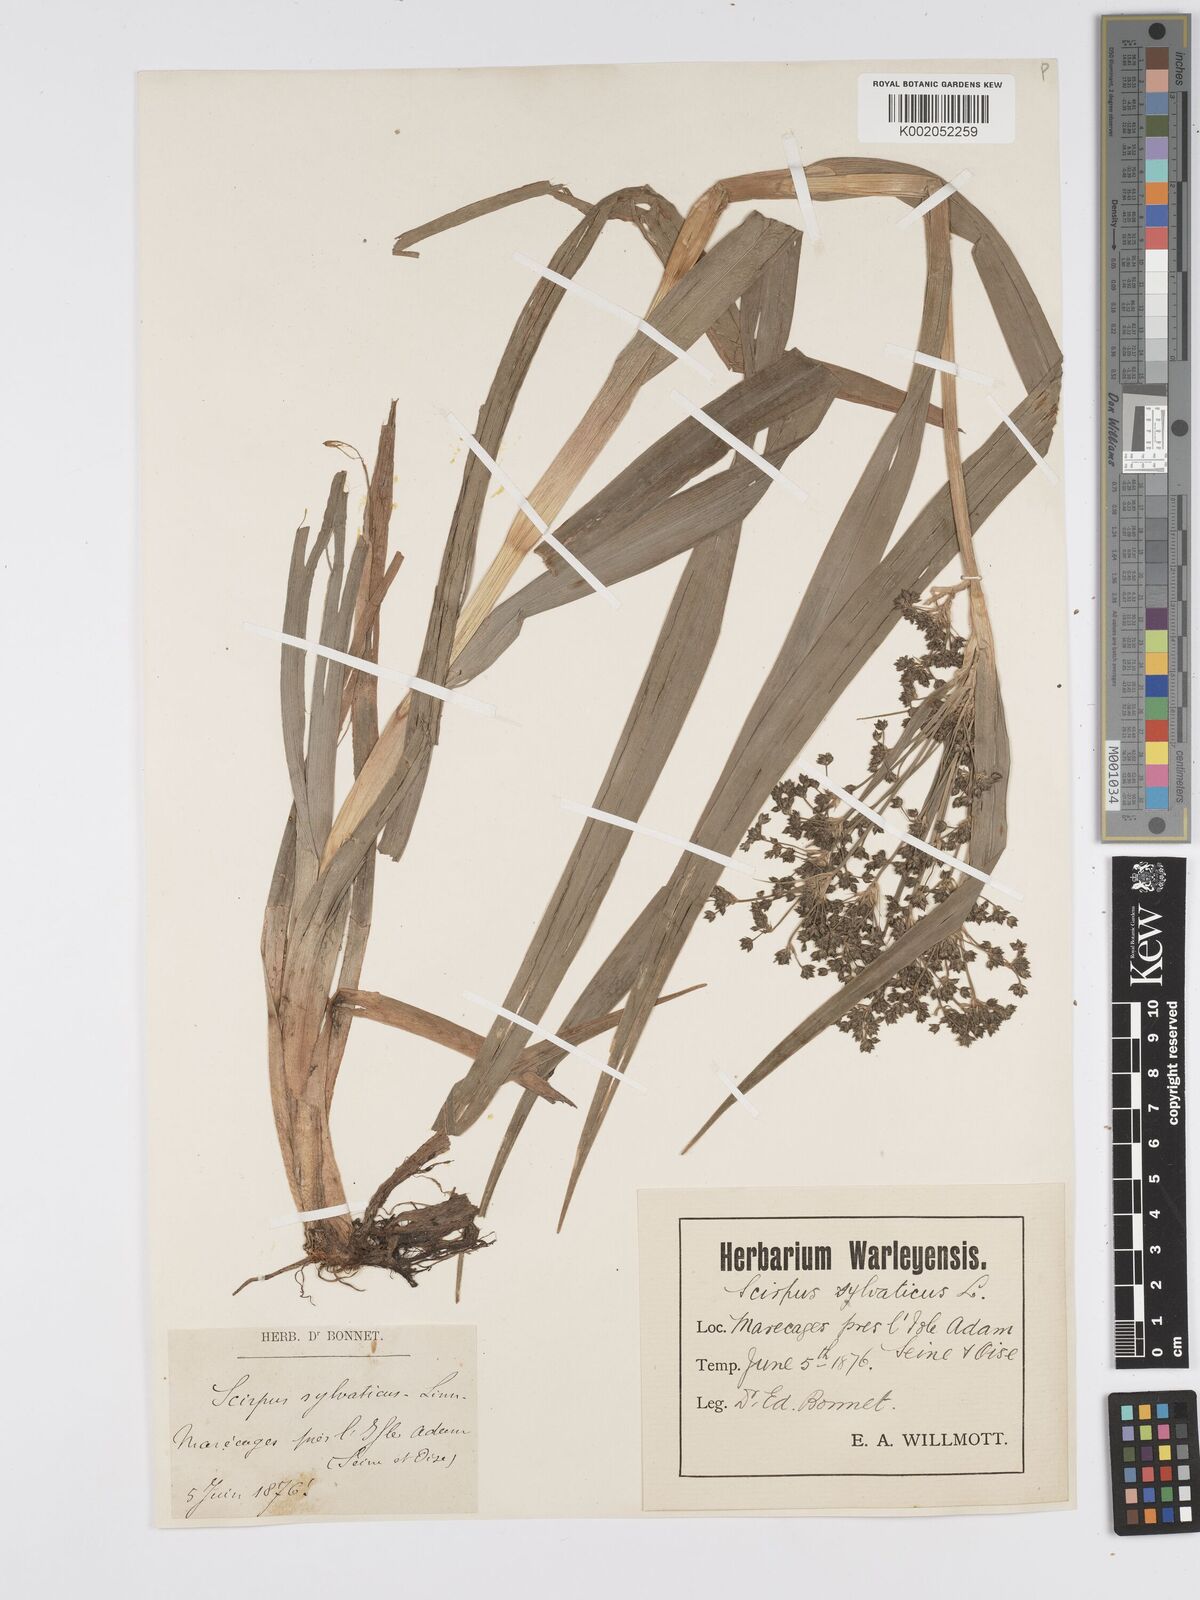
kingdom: Plantae
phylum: Tracheophyta
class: Liliopsida
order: Poales
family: Cyperaceae
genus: Scirpus
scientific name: Scirpus sylvaticus
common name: Wood club-rush
